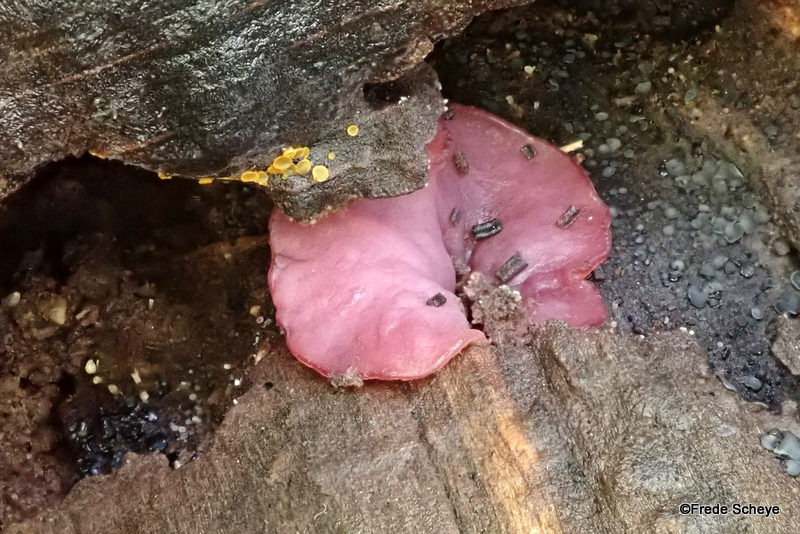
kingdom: Fungi
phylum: Ascomycota
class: Leotiomycetes
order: Helotiales
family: Gelatinodiscaceae
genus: Ascocoryne
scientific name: Ascocoryne cylichnium
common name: stor sejskive
